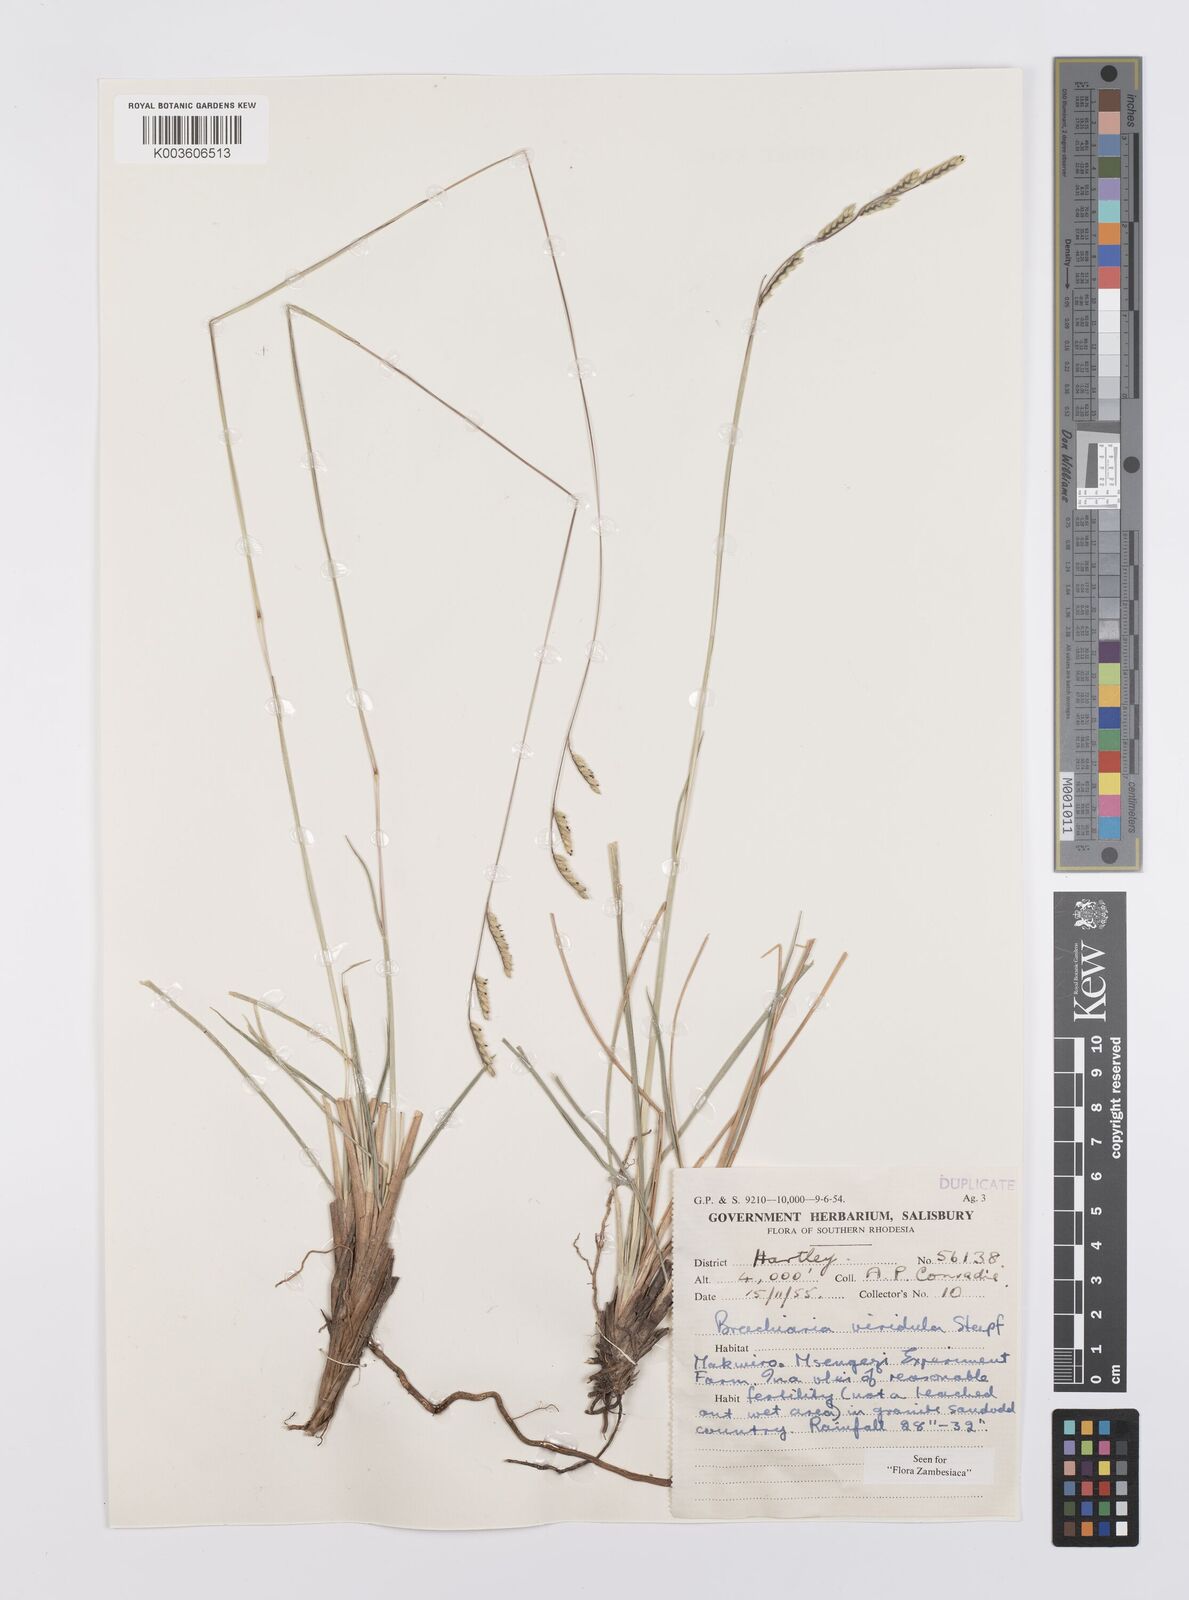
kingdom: Plantae
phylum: Tracheophyta
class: Liliopsida
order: Poales
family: Poaceae
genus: Urochloa
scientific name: Urochloa bovonei
